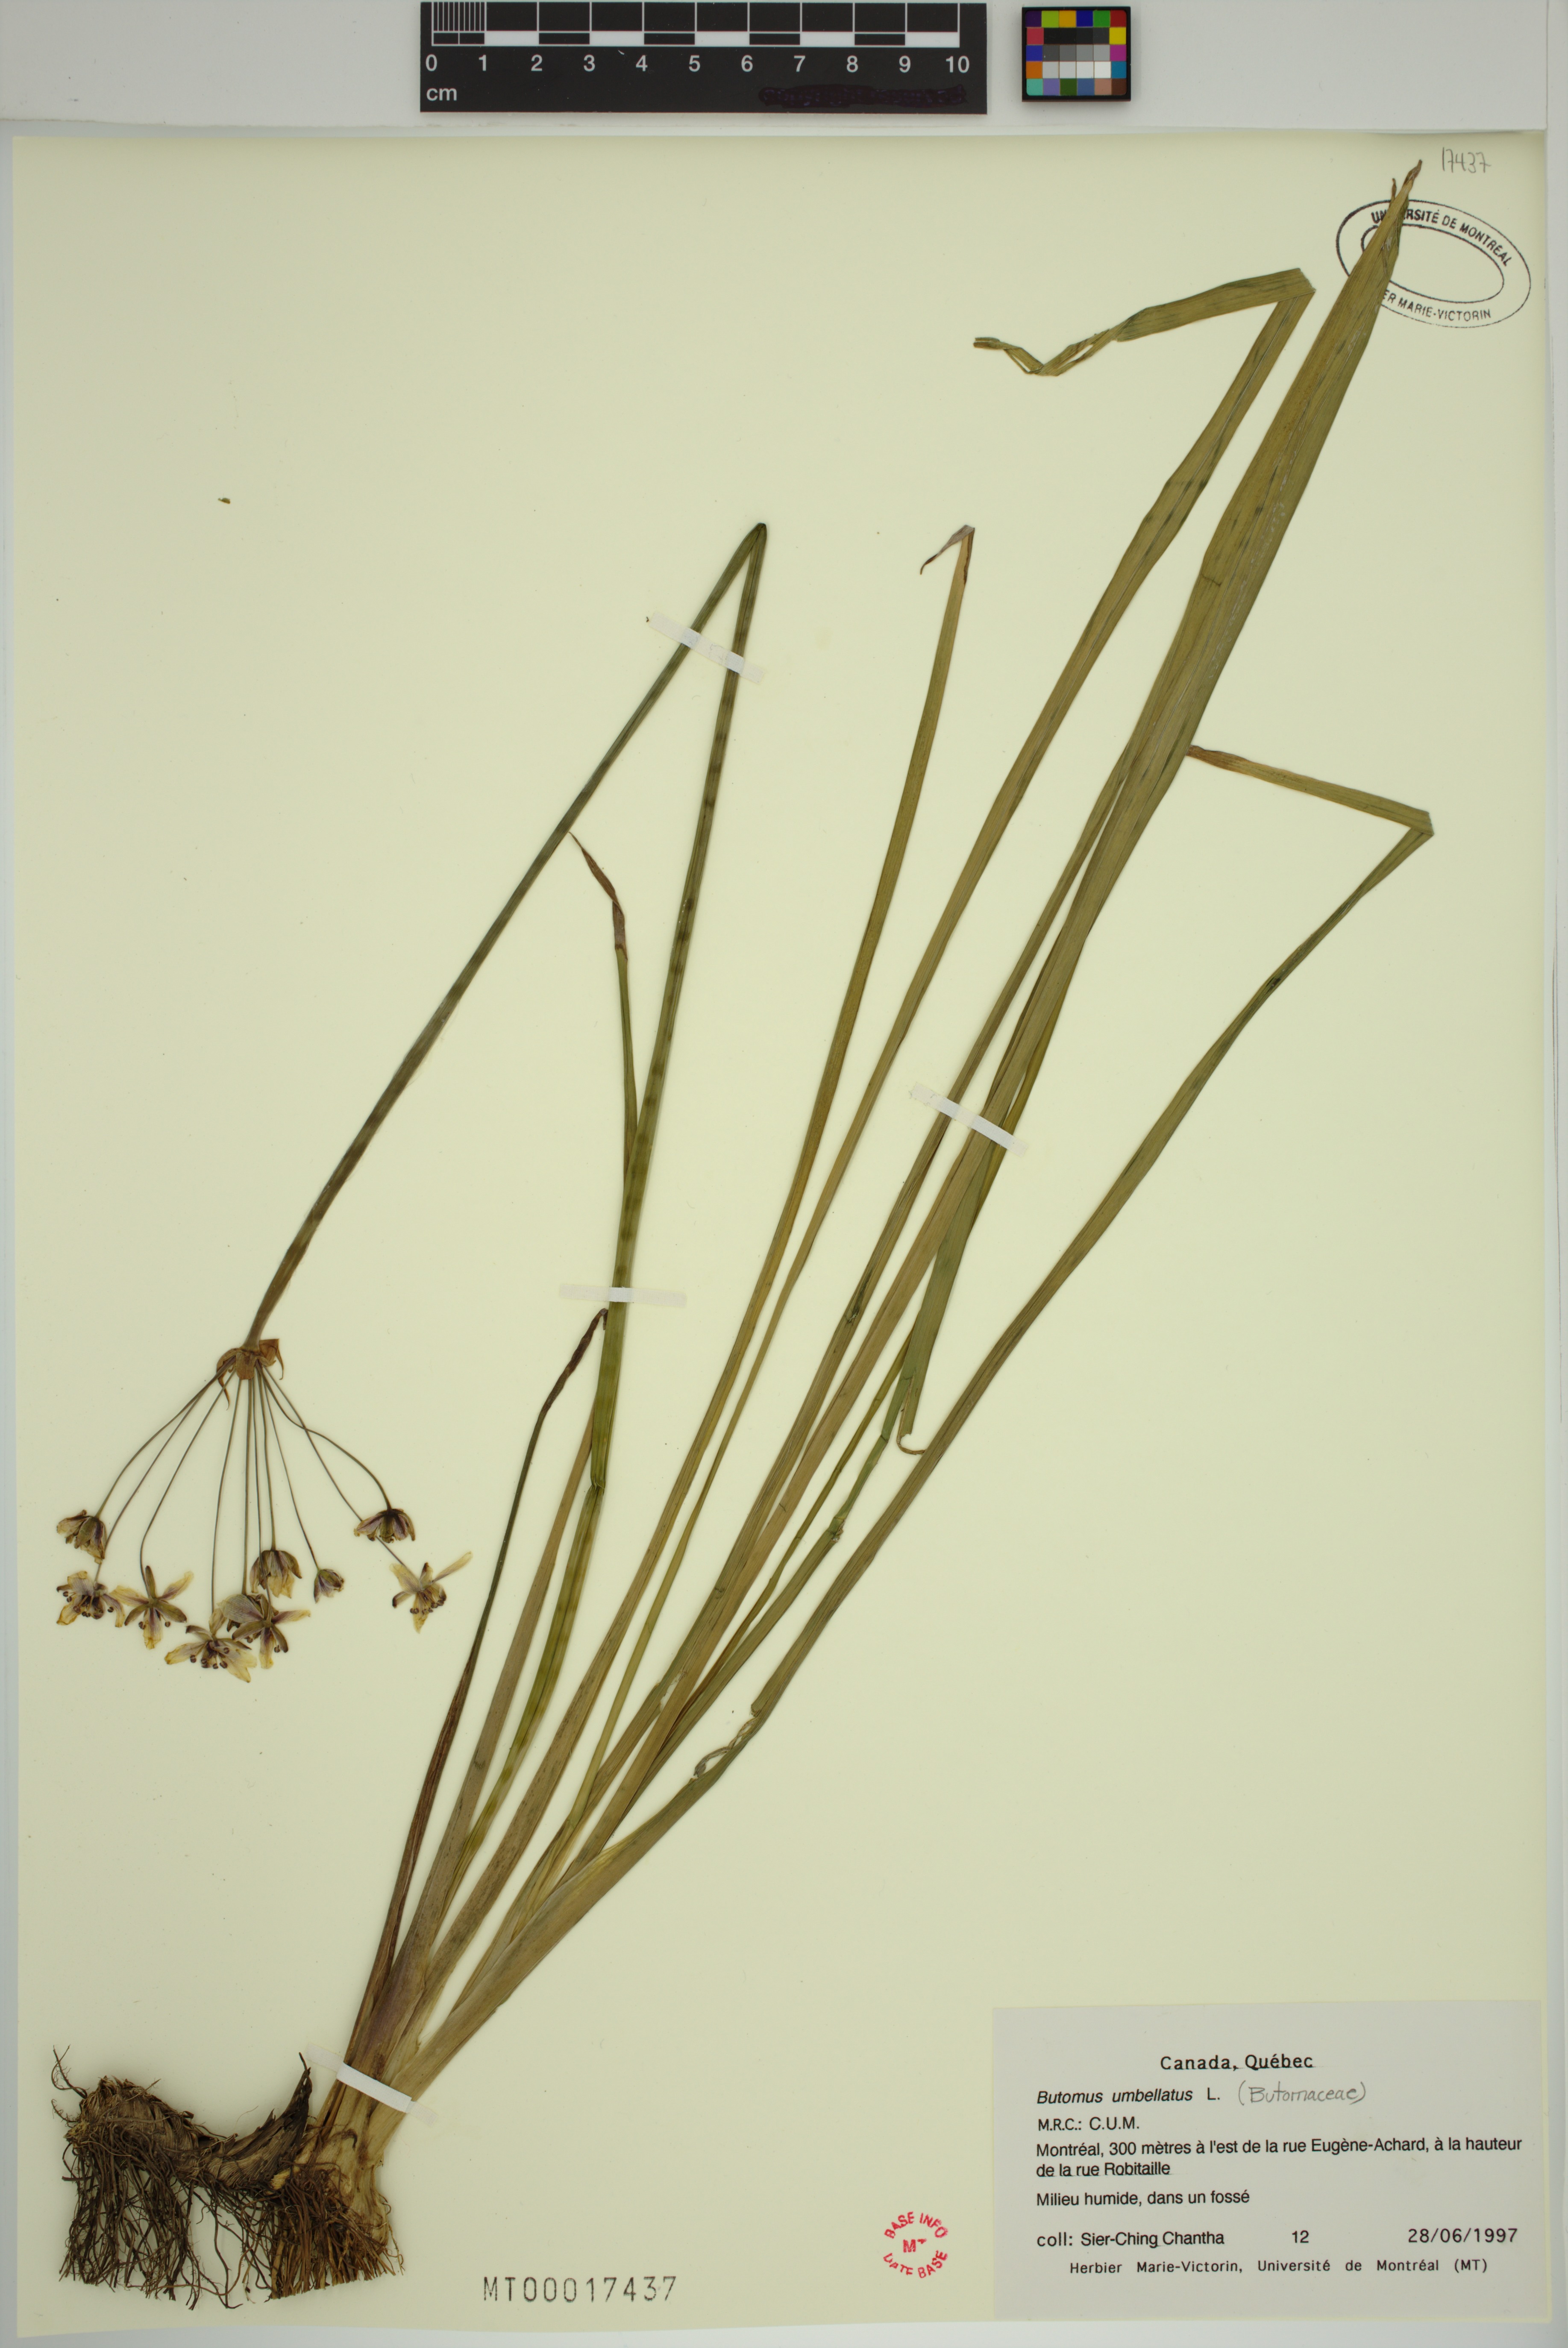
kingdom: Plantae
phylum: Tracheophyta
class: Liliopsida
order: Alismatales
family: Butomaceae
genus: Butomus
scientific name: Butomus umbellatus
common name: Flowering-rush
